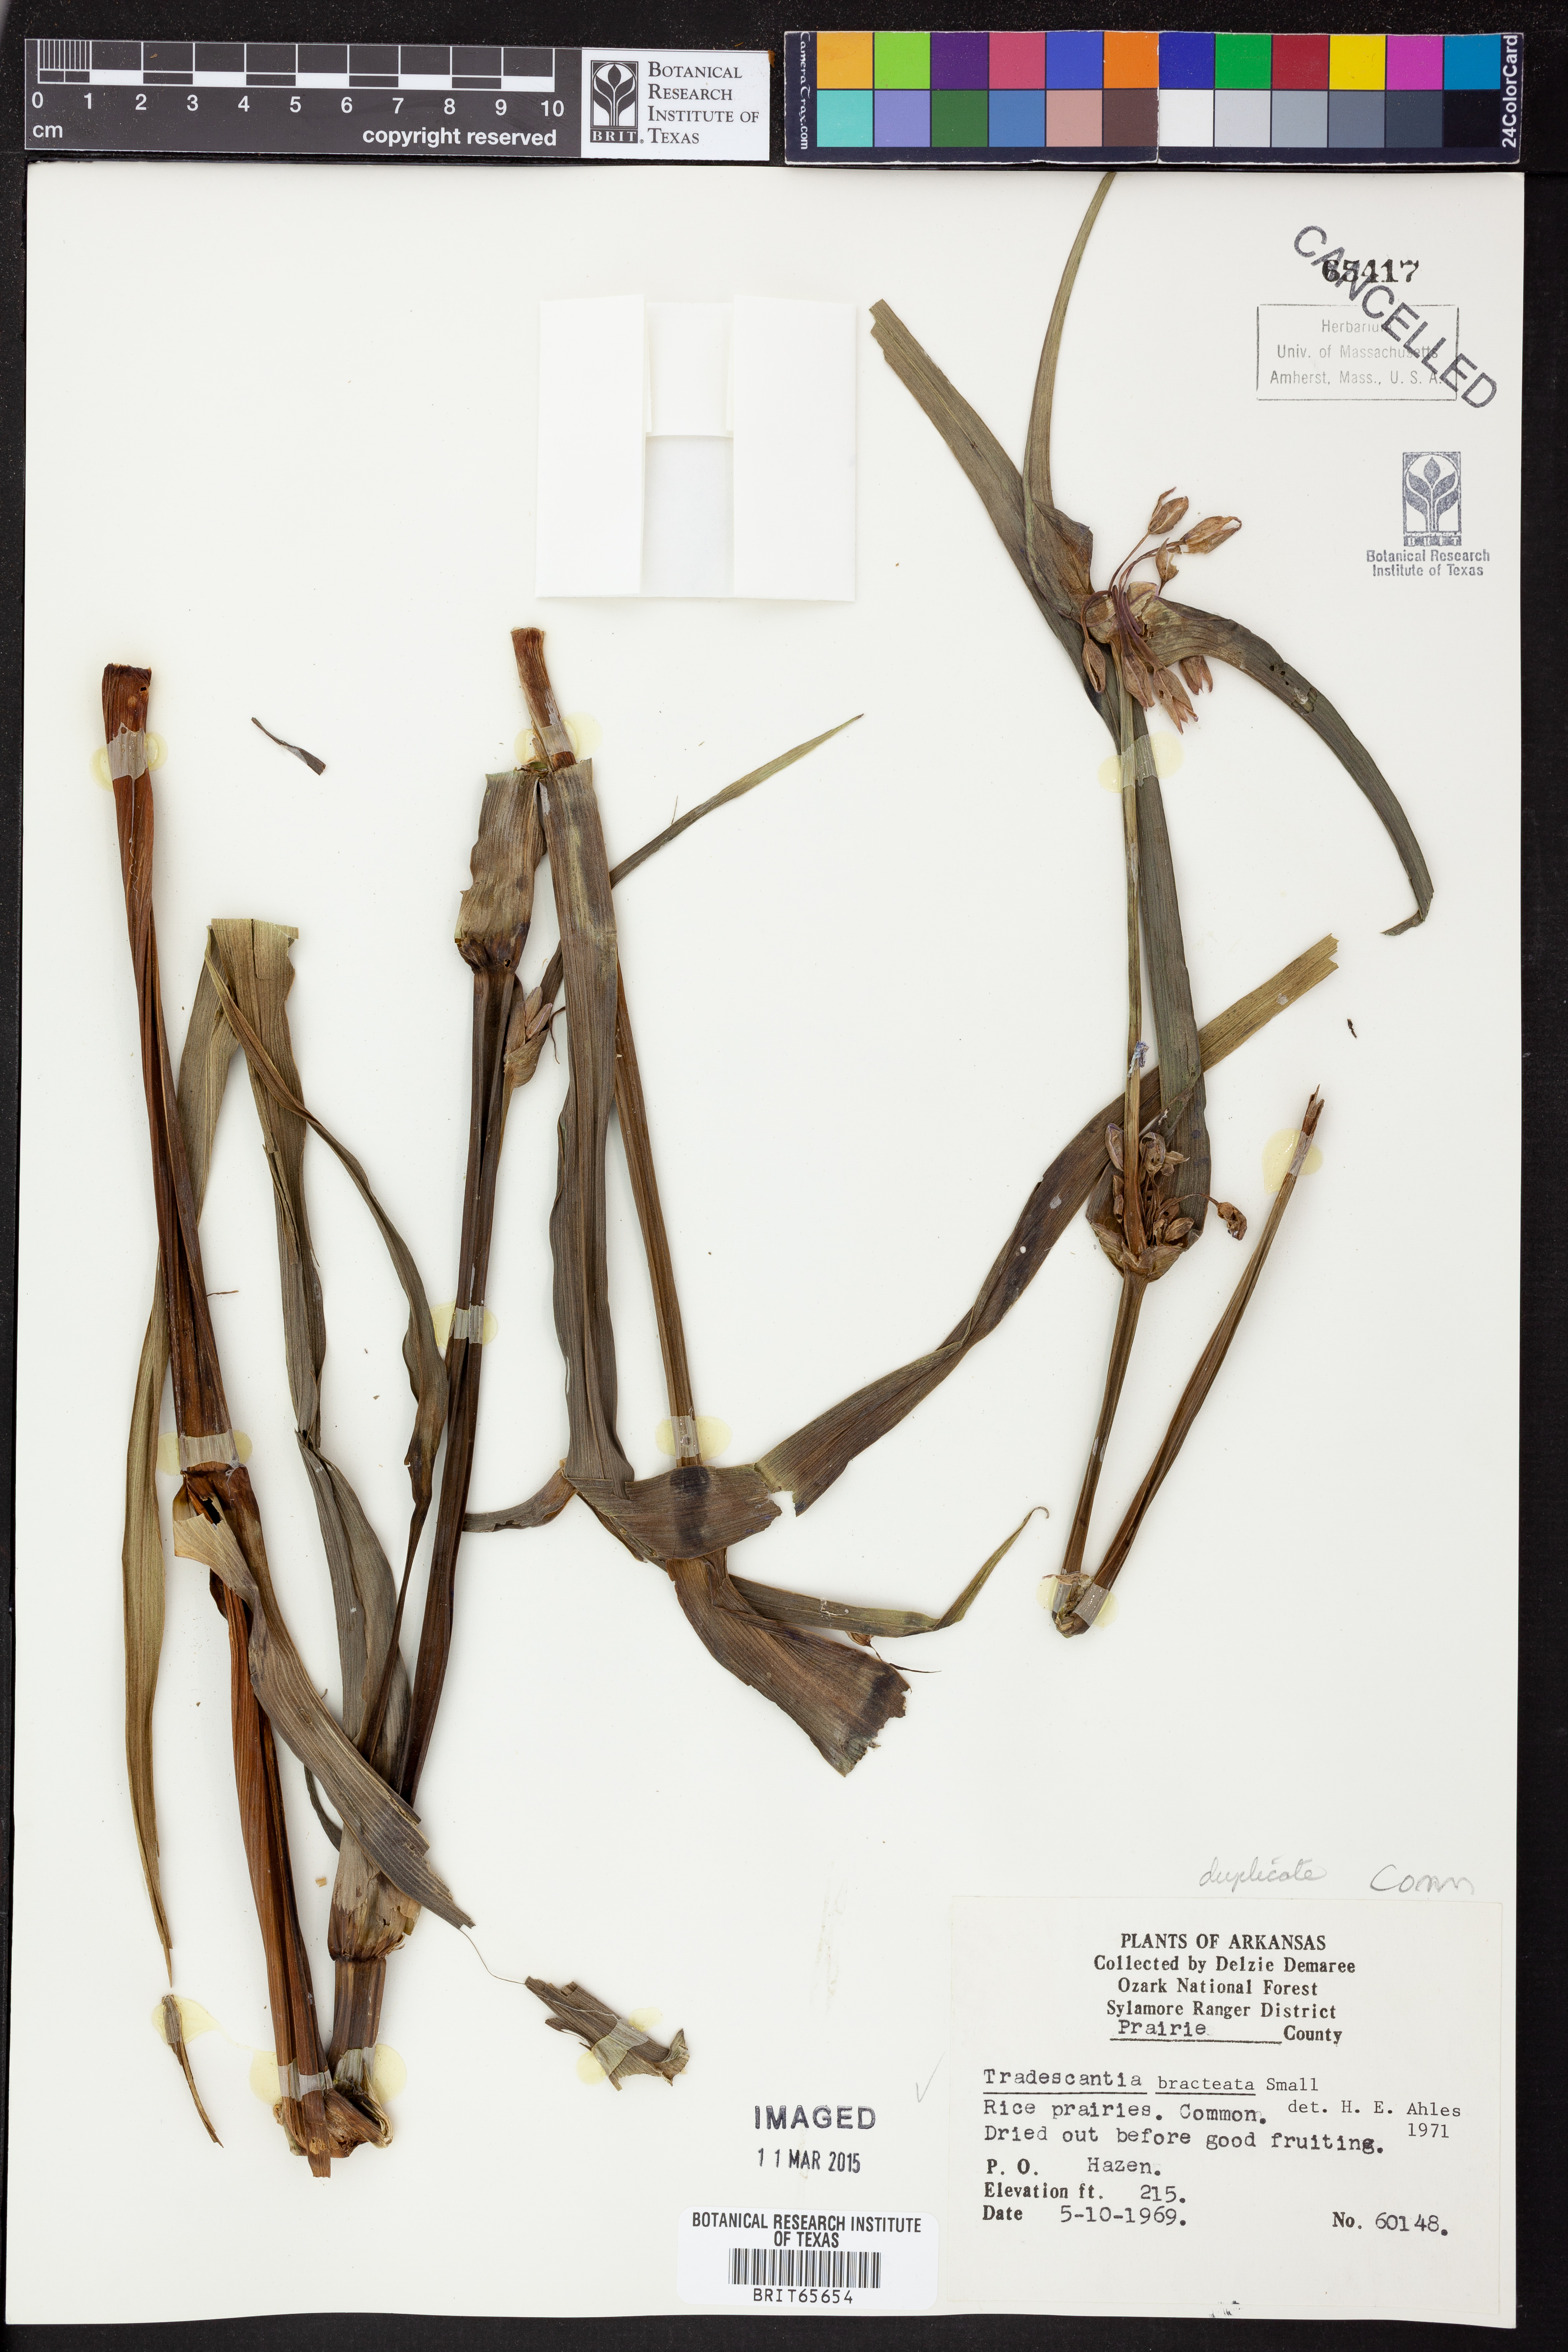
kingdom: Plantae
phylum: Tracheophyta
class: Liliopsida
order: Commelinales
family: Commelinaceae
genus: Tradescantia
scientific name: Tradescantia bracteata
